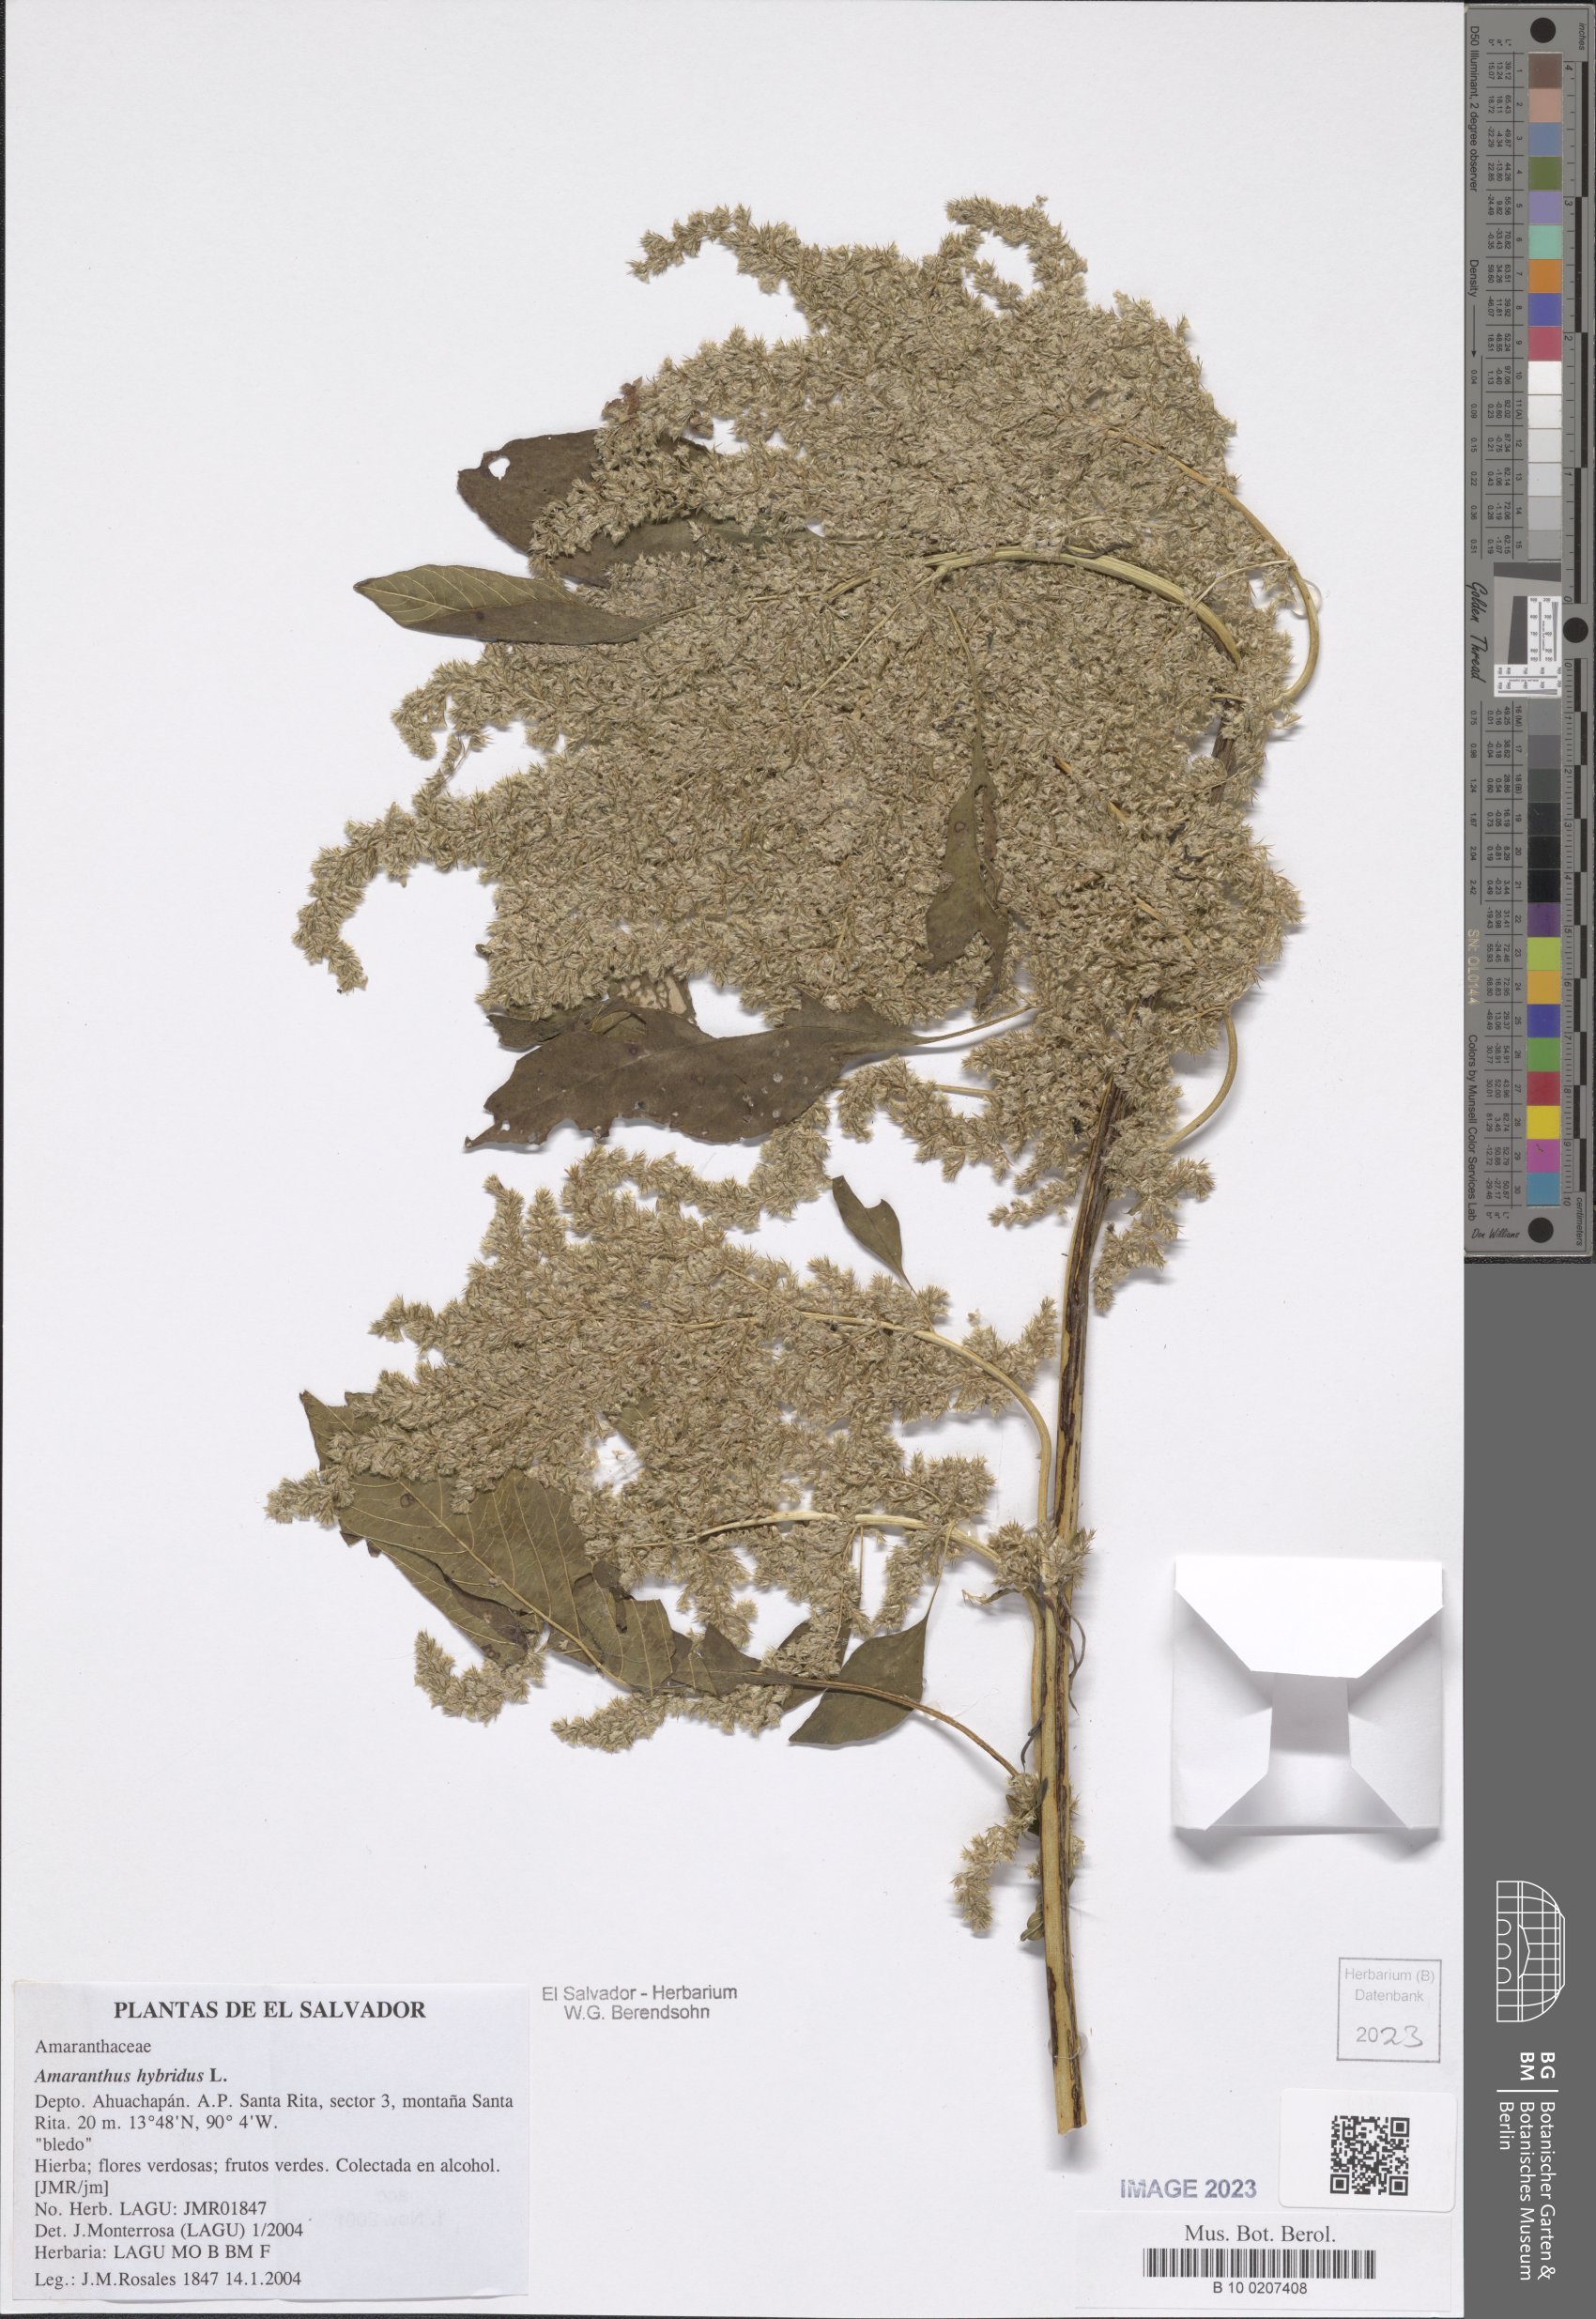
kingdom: Plantae
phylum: Tracheophyta
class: Magnoliopsida
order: Caryophyllales
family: Amaranthaceae
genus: Amaranthus
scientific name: Amaranthus hybridus
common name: Green amaranth
